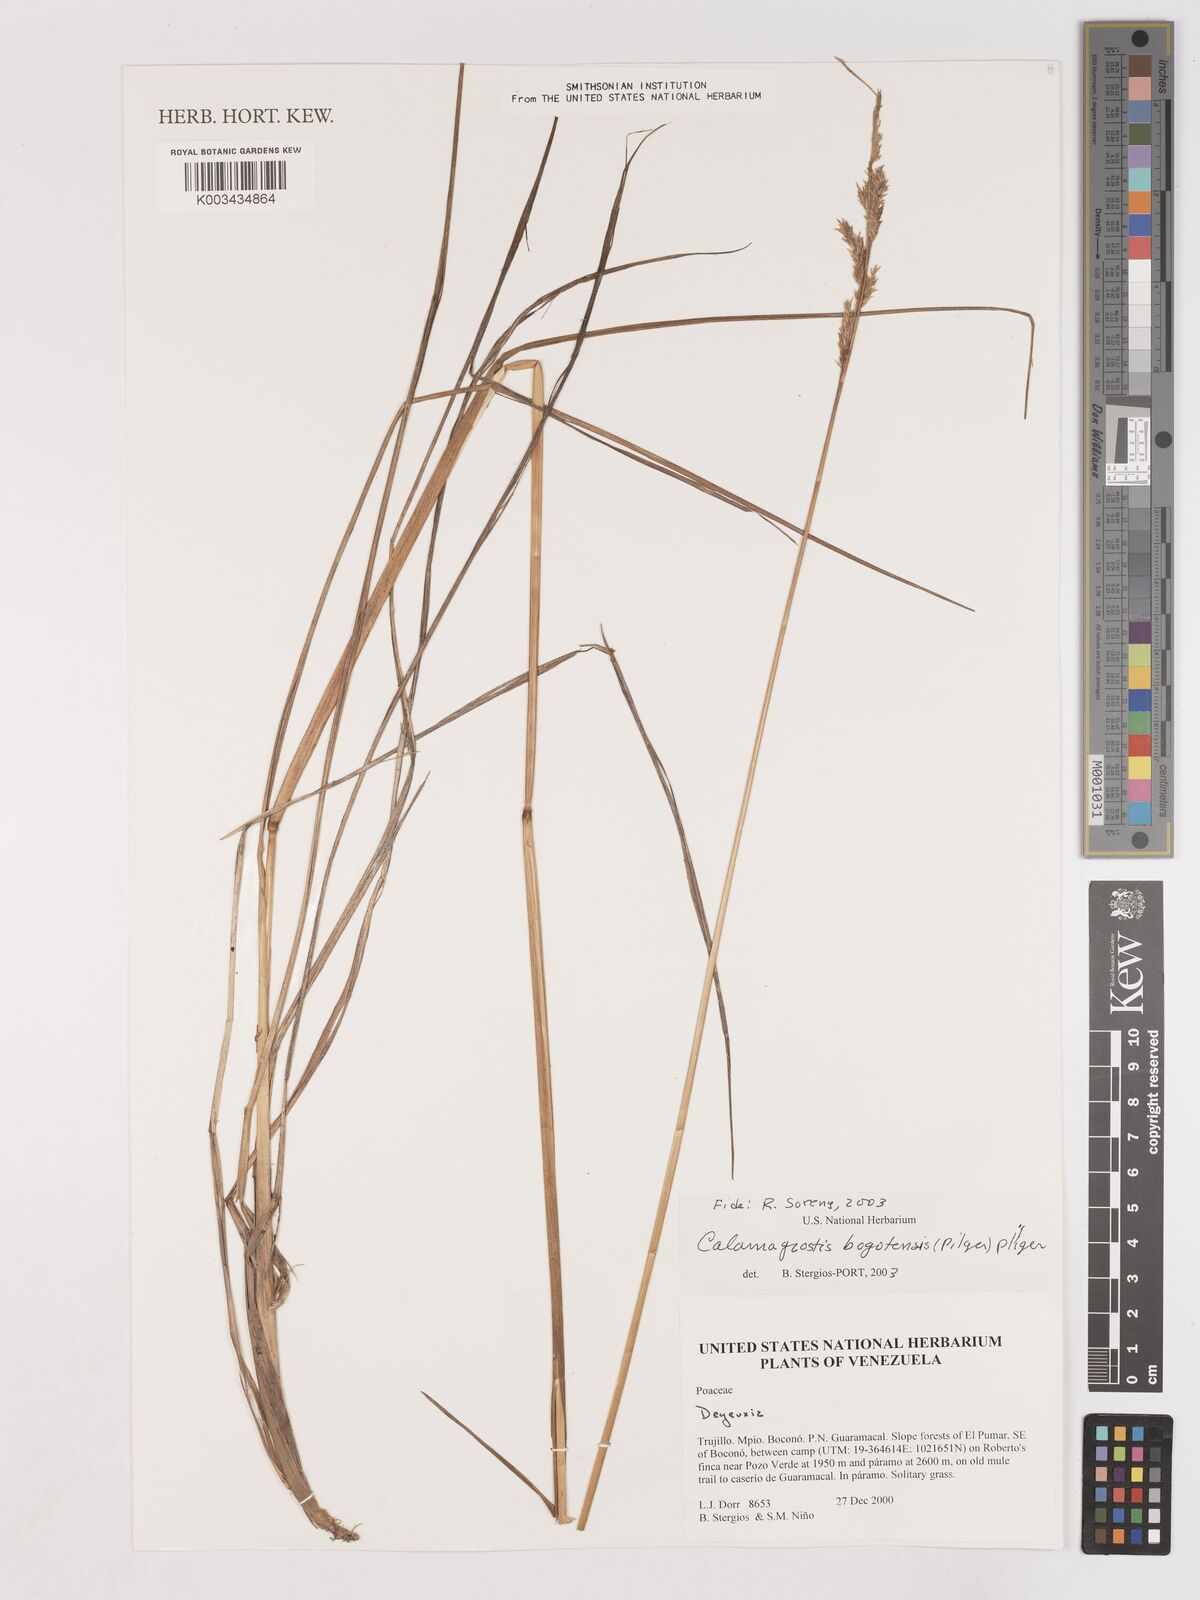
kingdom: Plantae
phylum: Tracheophyta
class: Liliopsida
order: Poales
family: Poaceae
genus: Calamagrostis
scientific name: Calamagrostis bogotensis
